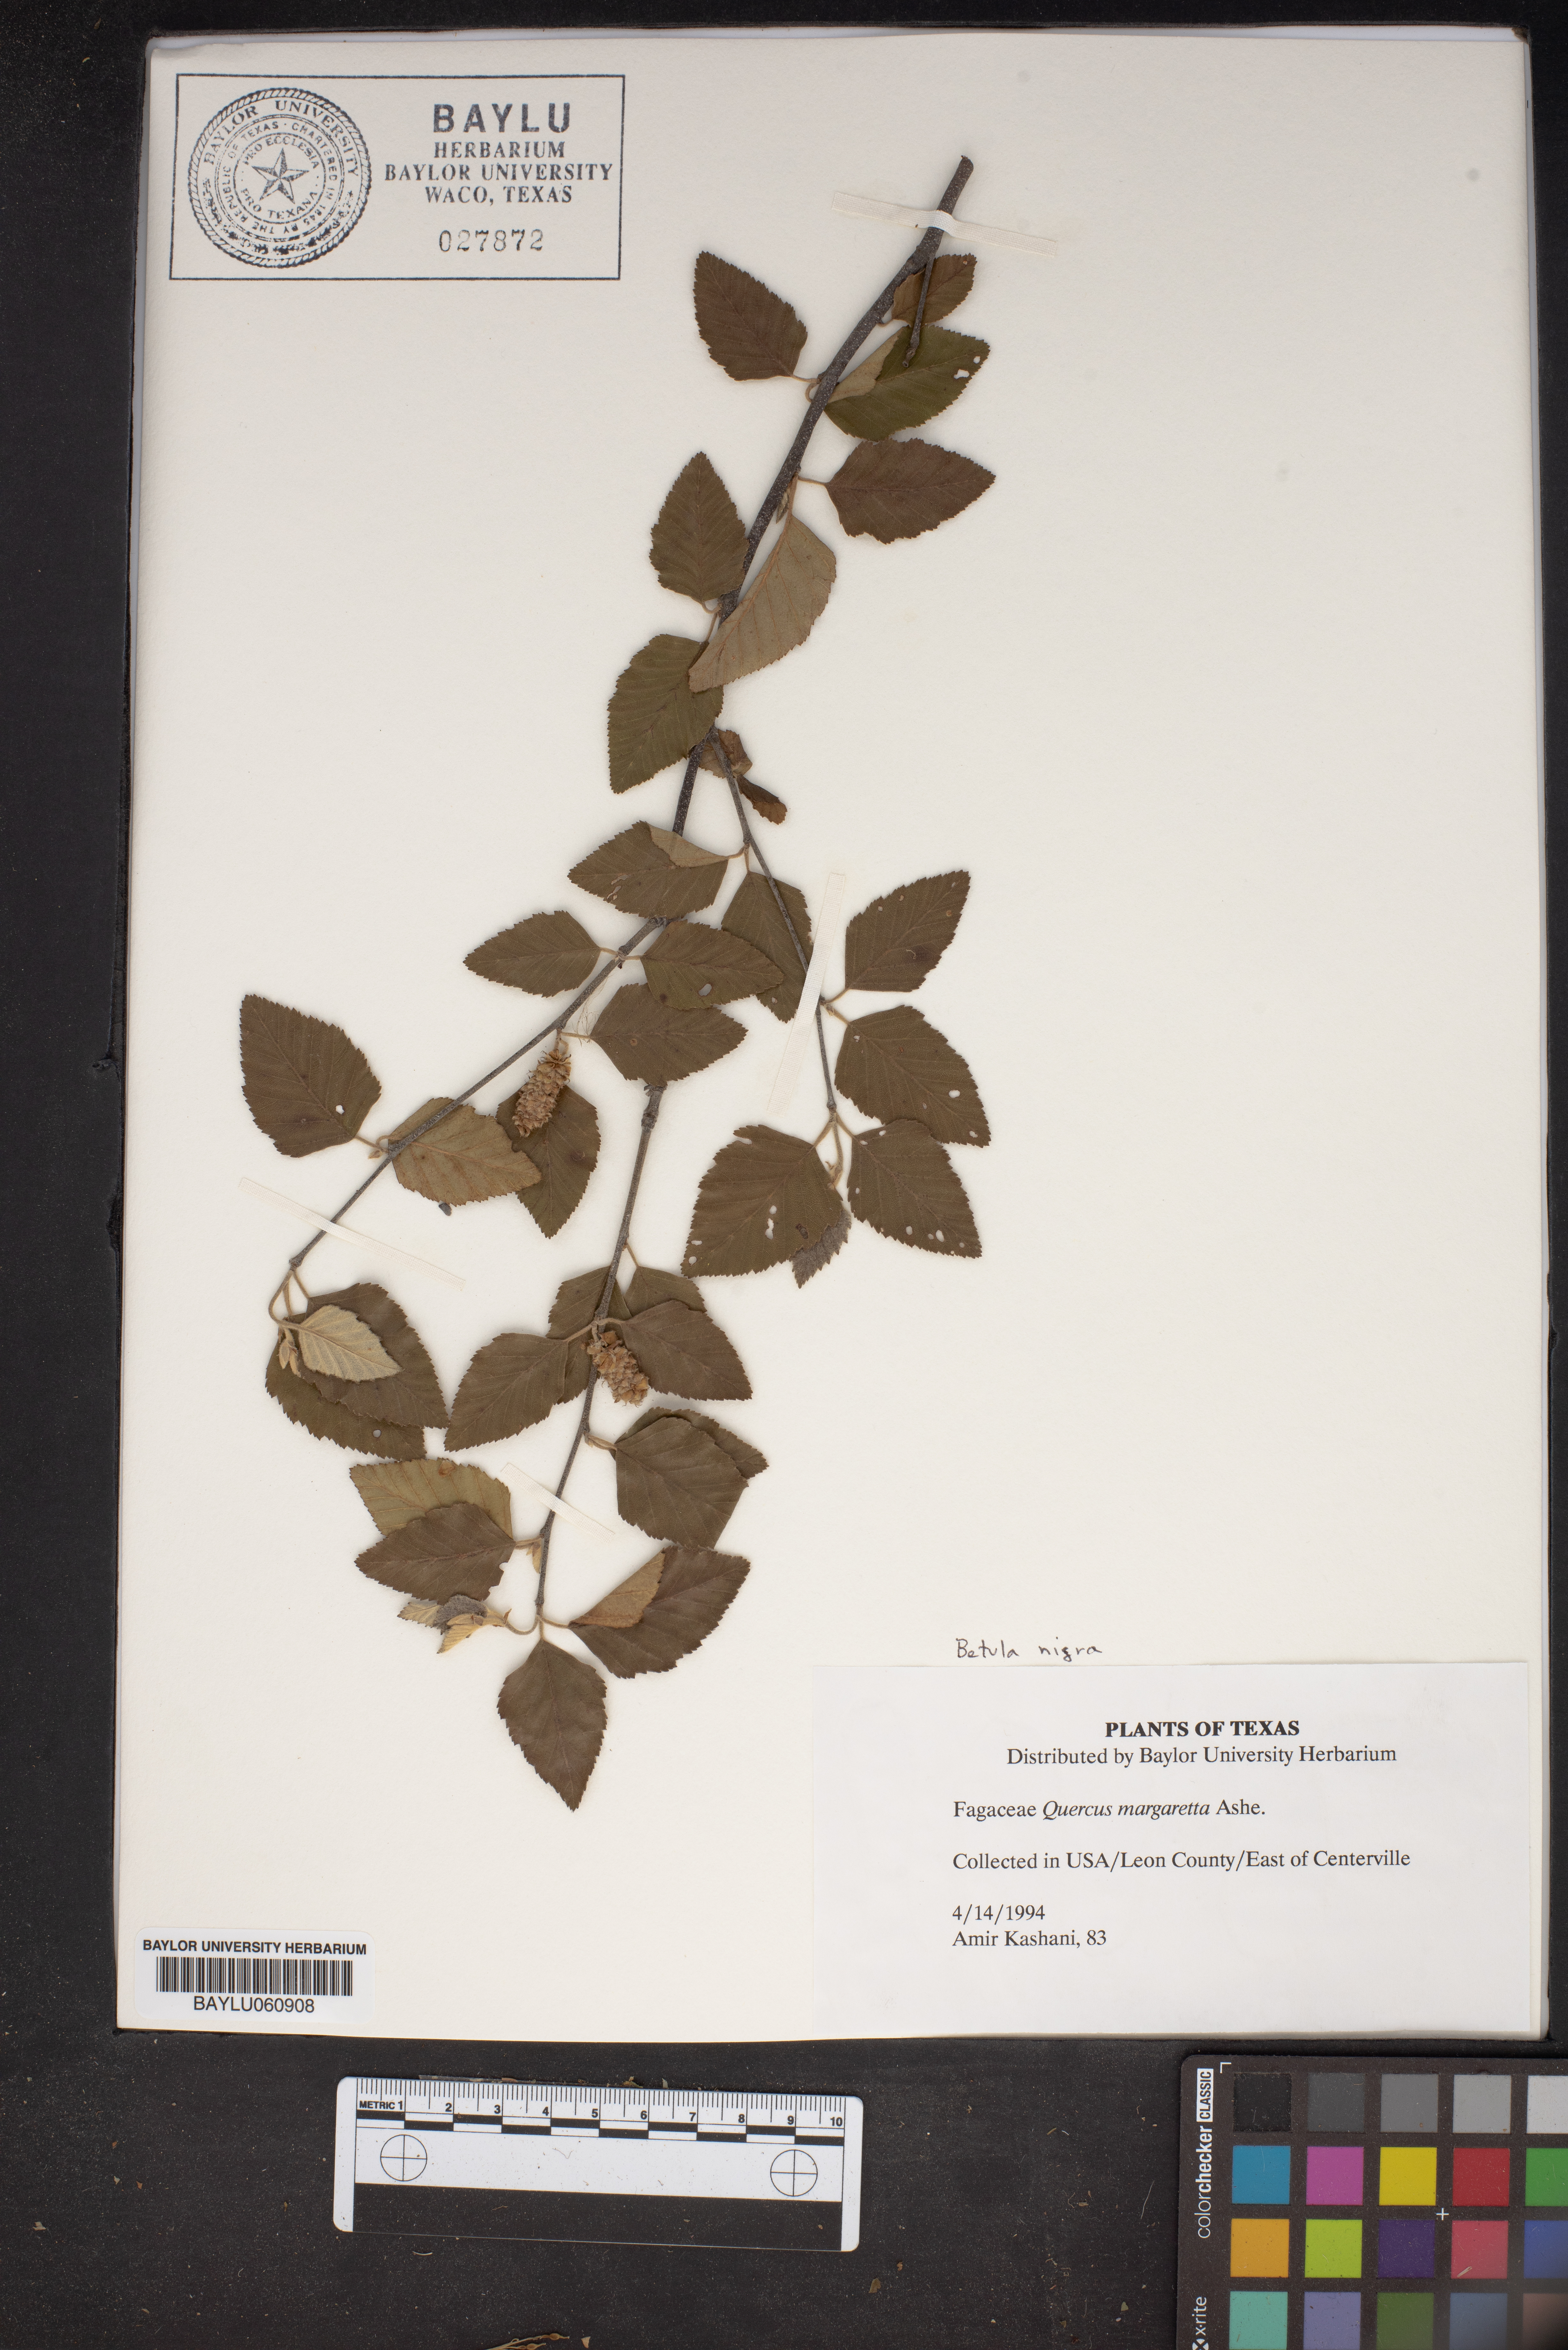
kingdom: Plantae
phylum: Tracheophyta
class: Magnoliopsida
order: Fagales
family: Fagaceae
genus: Quercus
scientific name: Quercus margaretta
